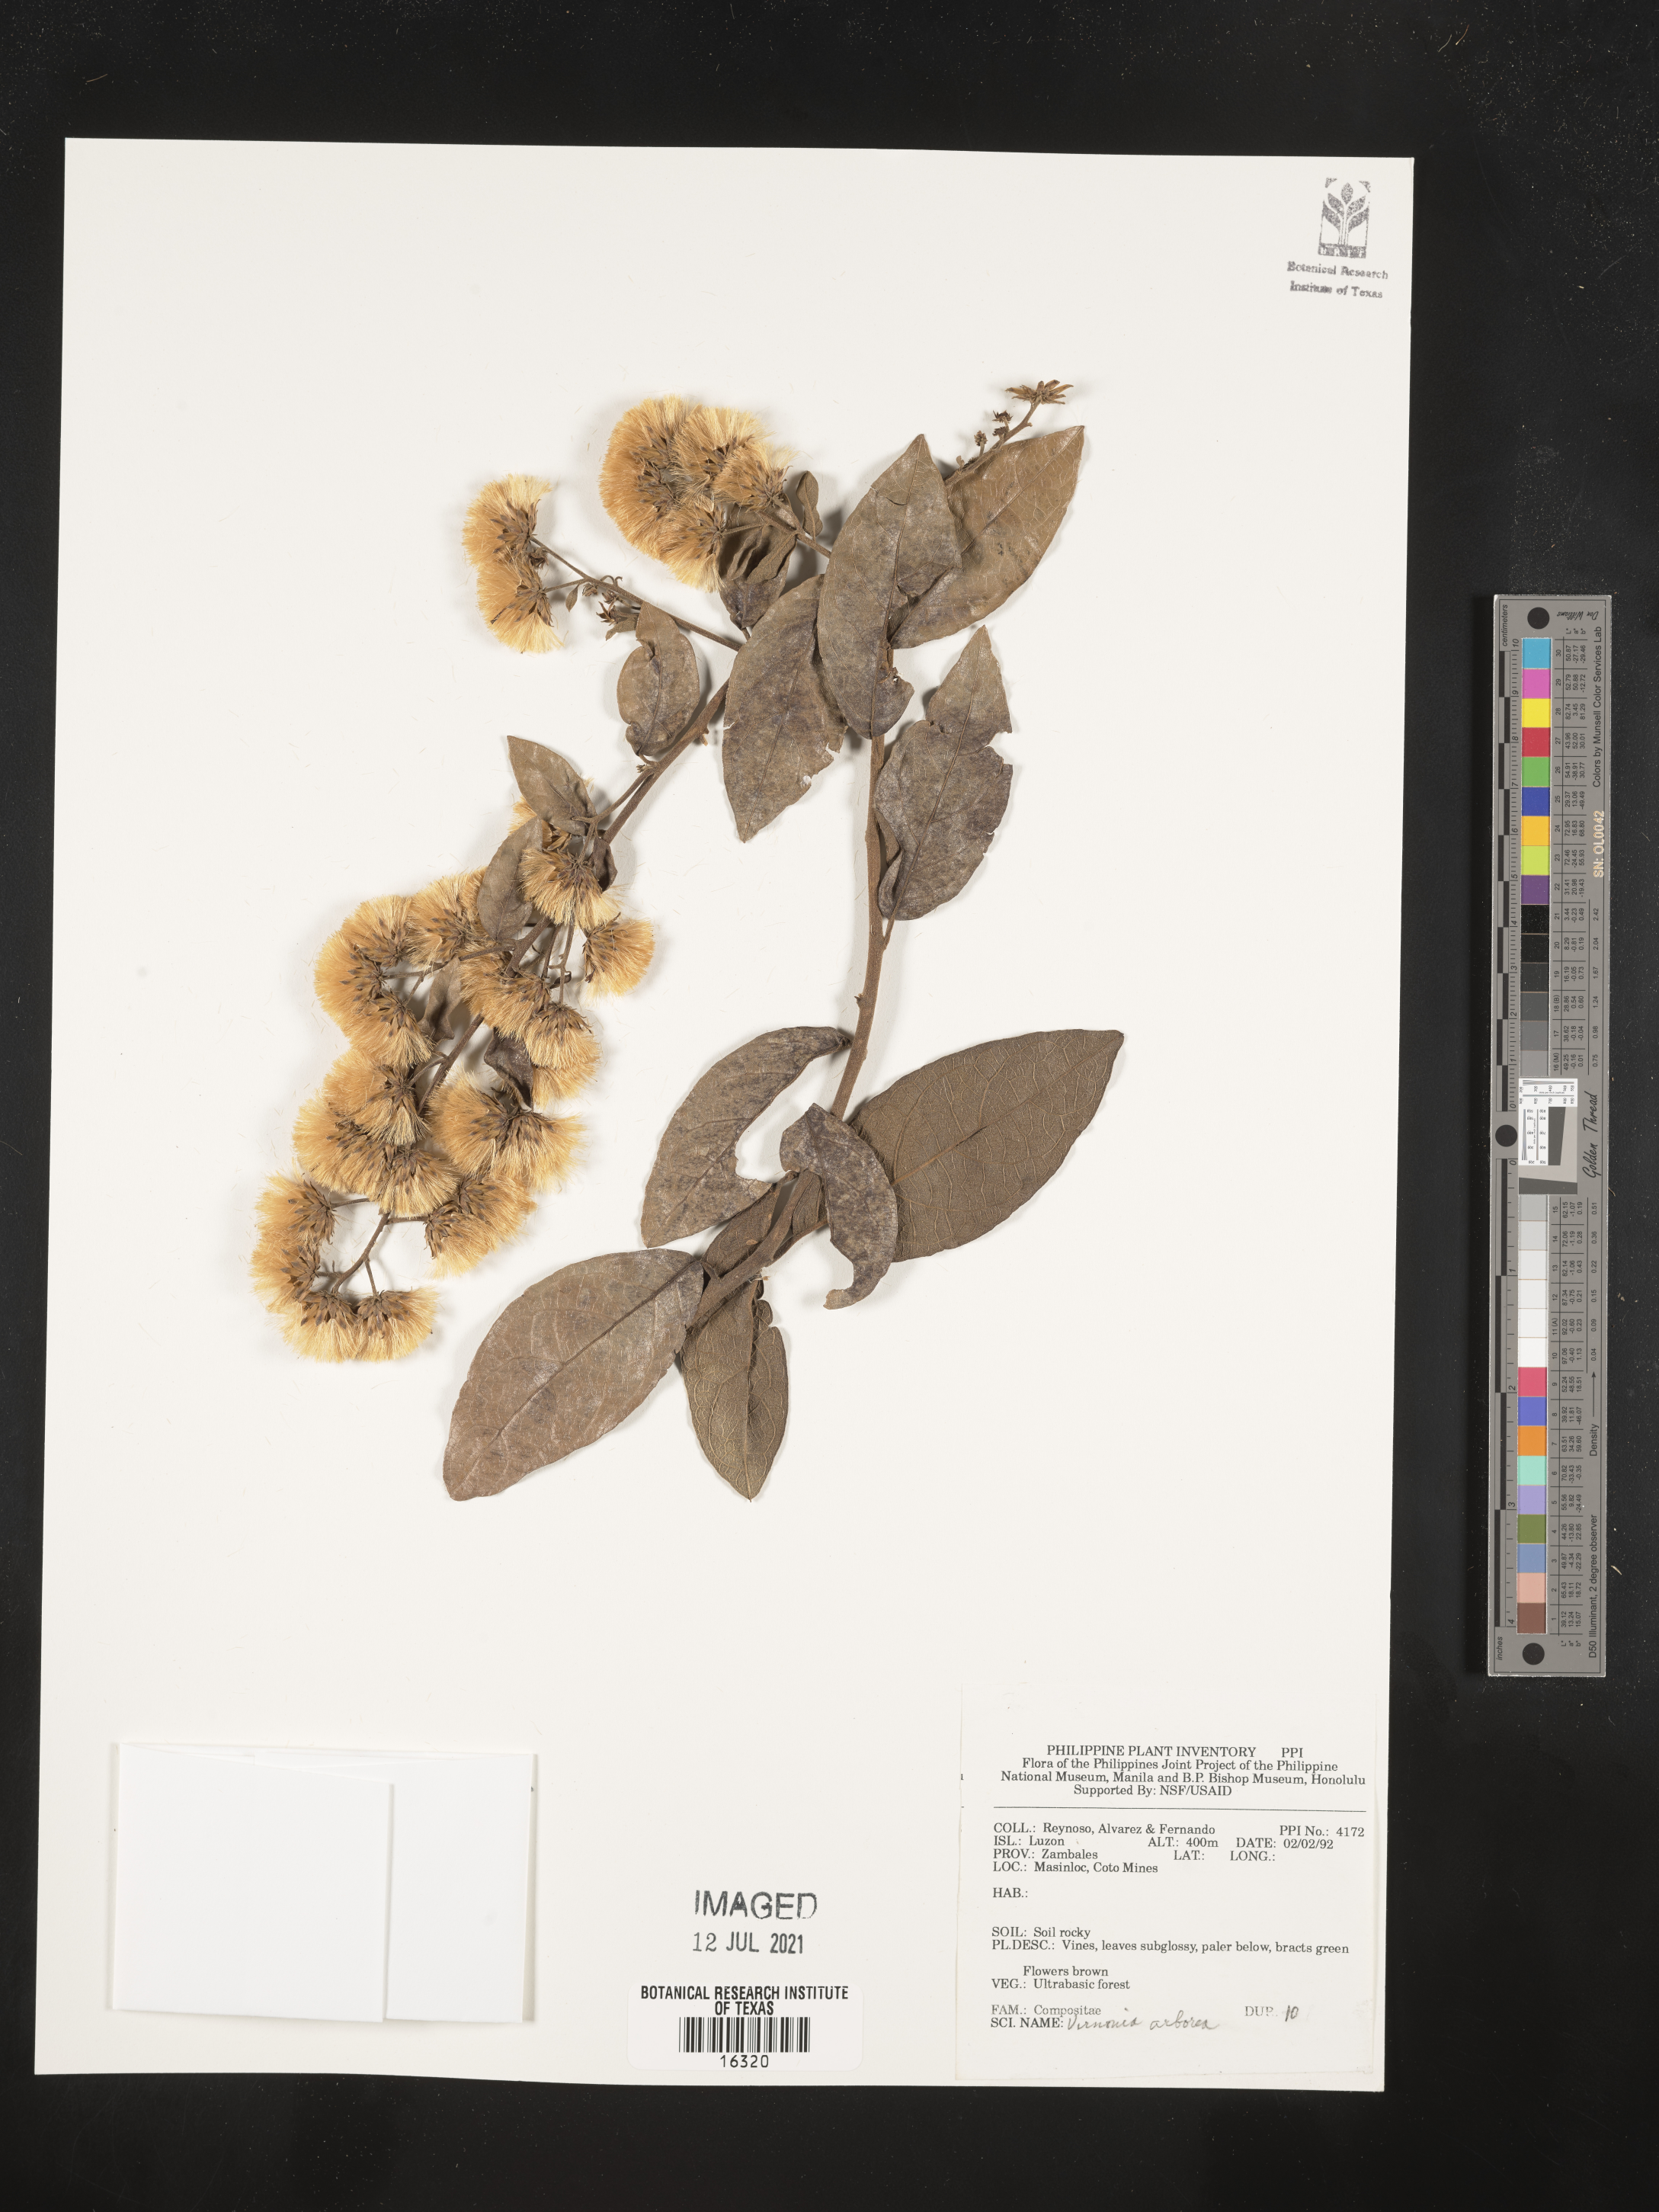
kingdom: Plantae
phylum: Tracheophyta
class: Magnoliopsida
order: Asterales
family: Asteraceae
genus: Strobocalyx
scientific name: Strobocalyx arborea
